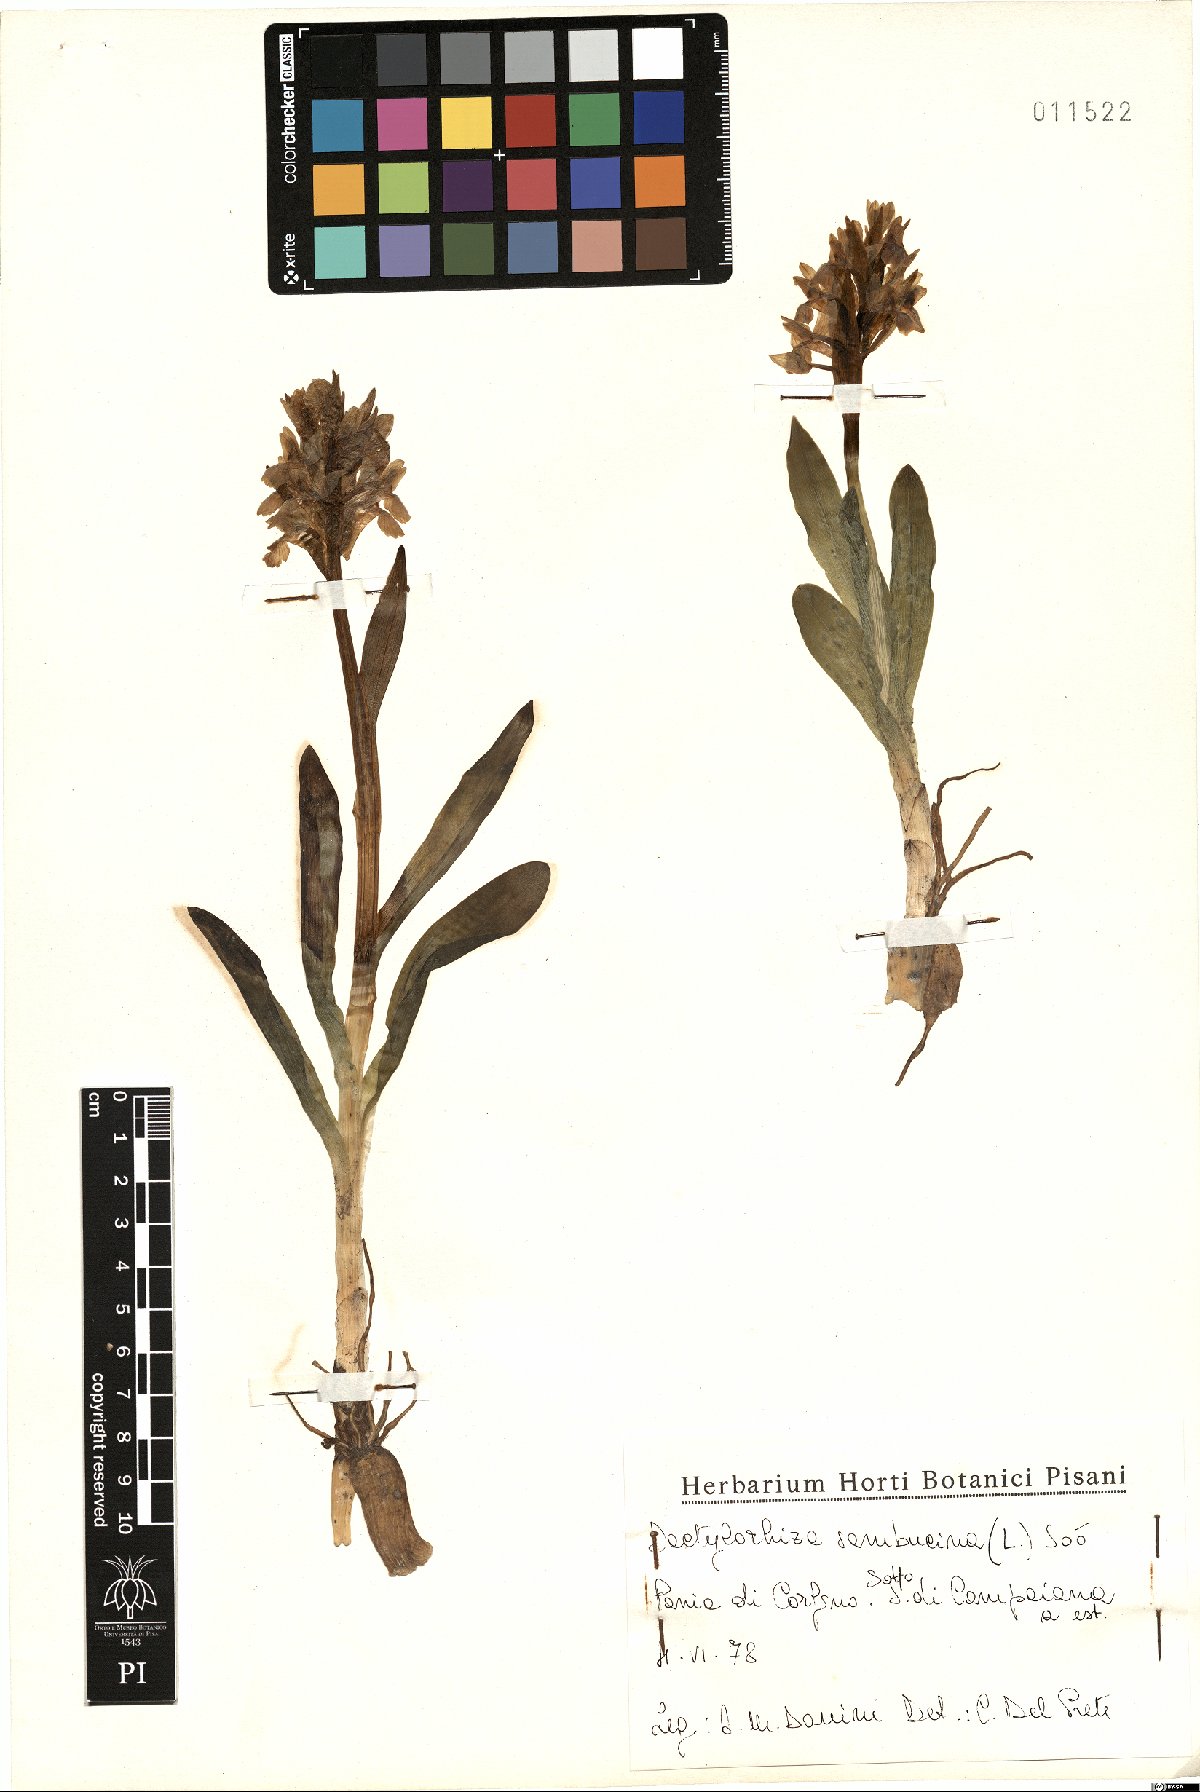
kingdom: Plantae
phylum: Tracheophyta
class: Liliopsida
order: Asparagales
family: Orchidaceae
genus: Dactylorhiza
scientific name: Dactylorhiza sambucina
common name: Elder-flowered orchid
